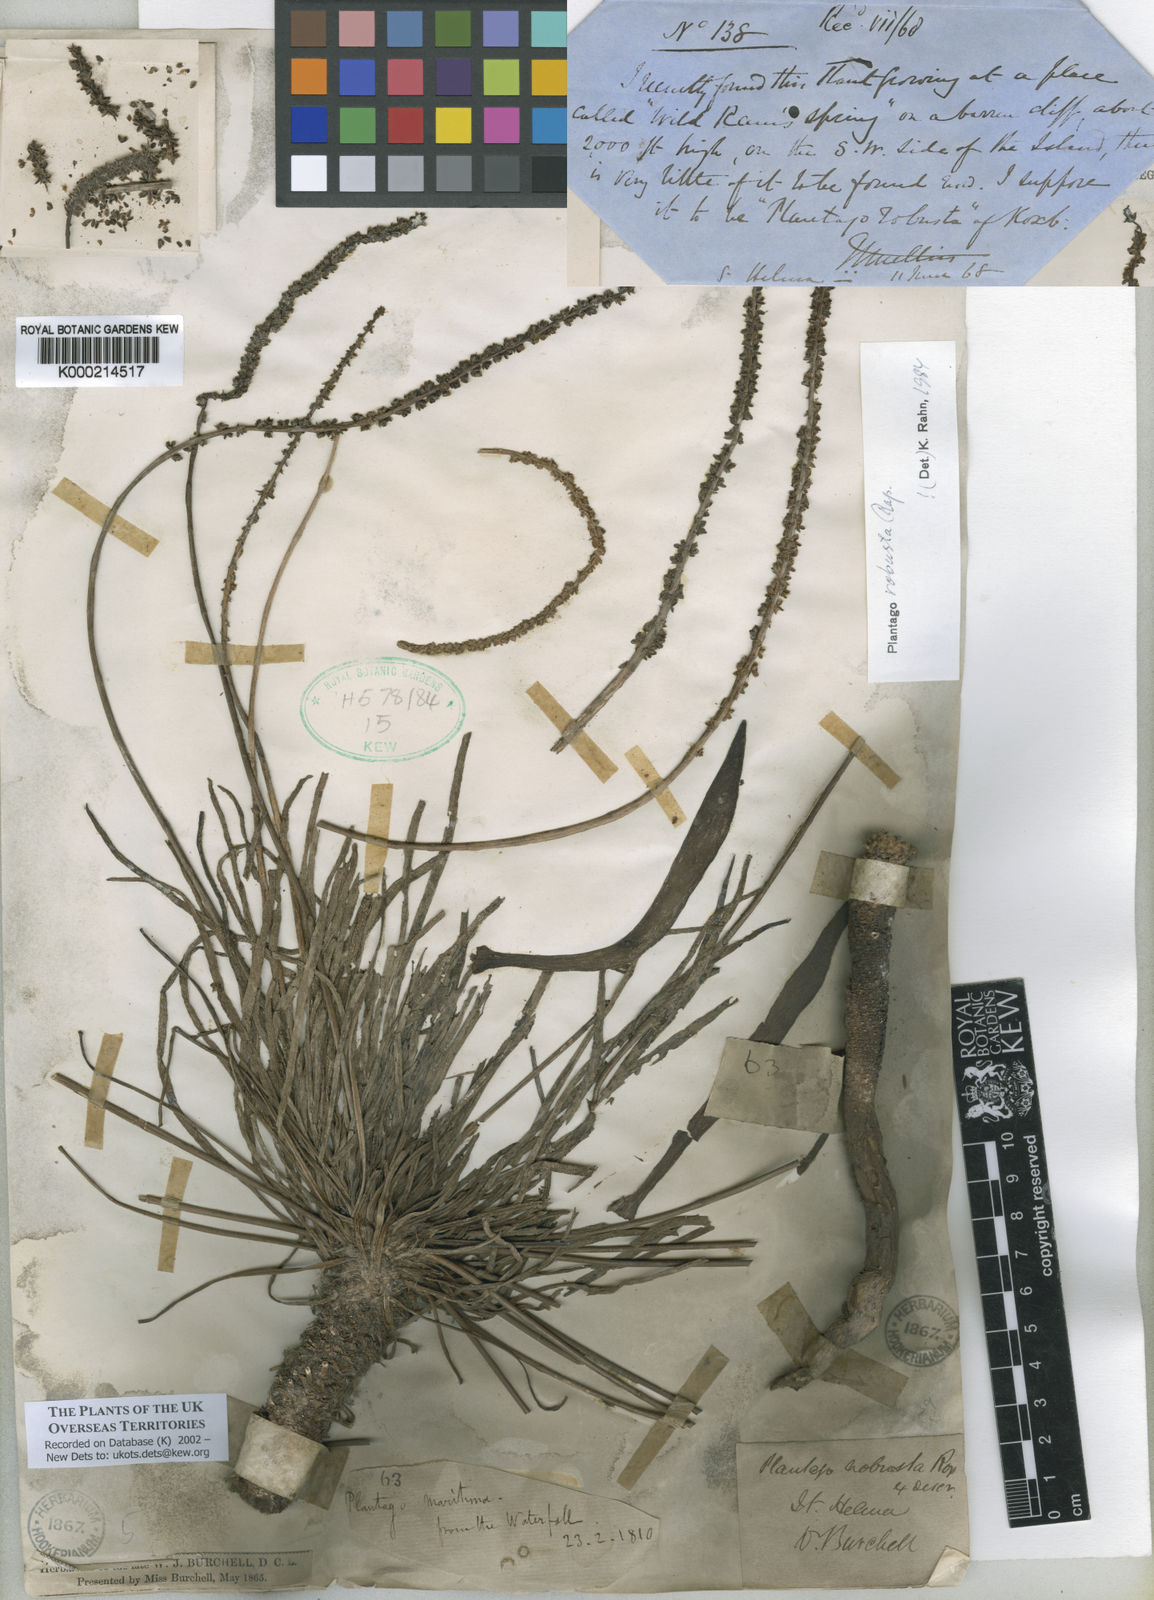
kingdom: Plantae
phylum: Tracheophyta
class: Magnoliopsida
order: Lamiales
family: Plantaginaceae
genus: Plantago
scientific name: Plantago robusta
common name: St helena plantain
